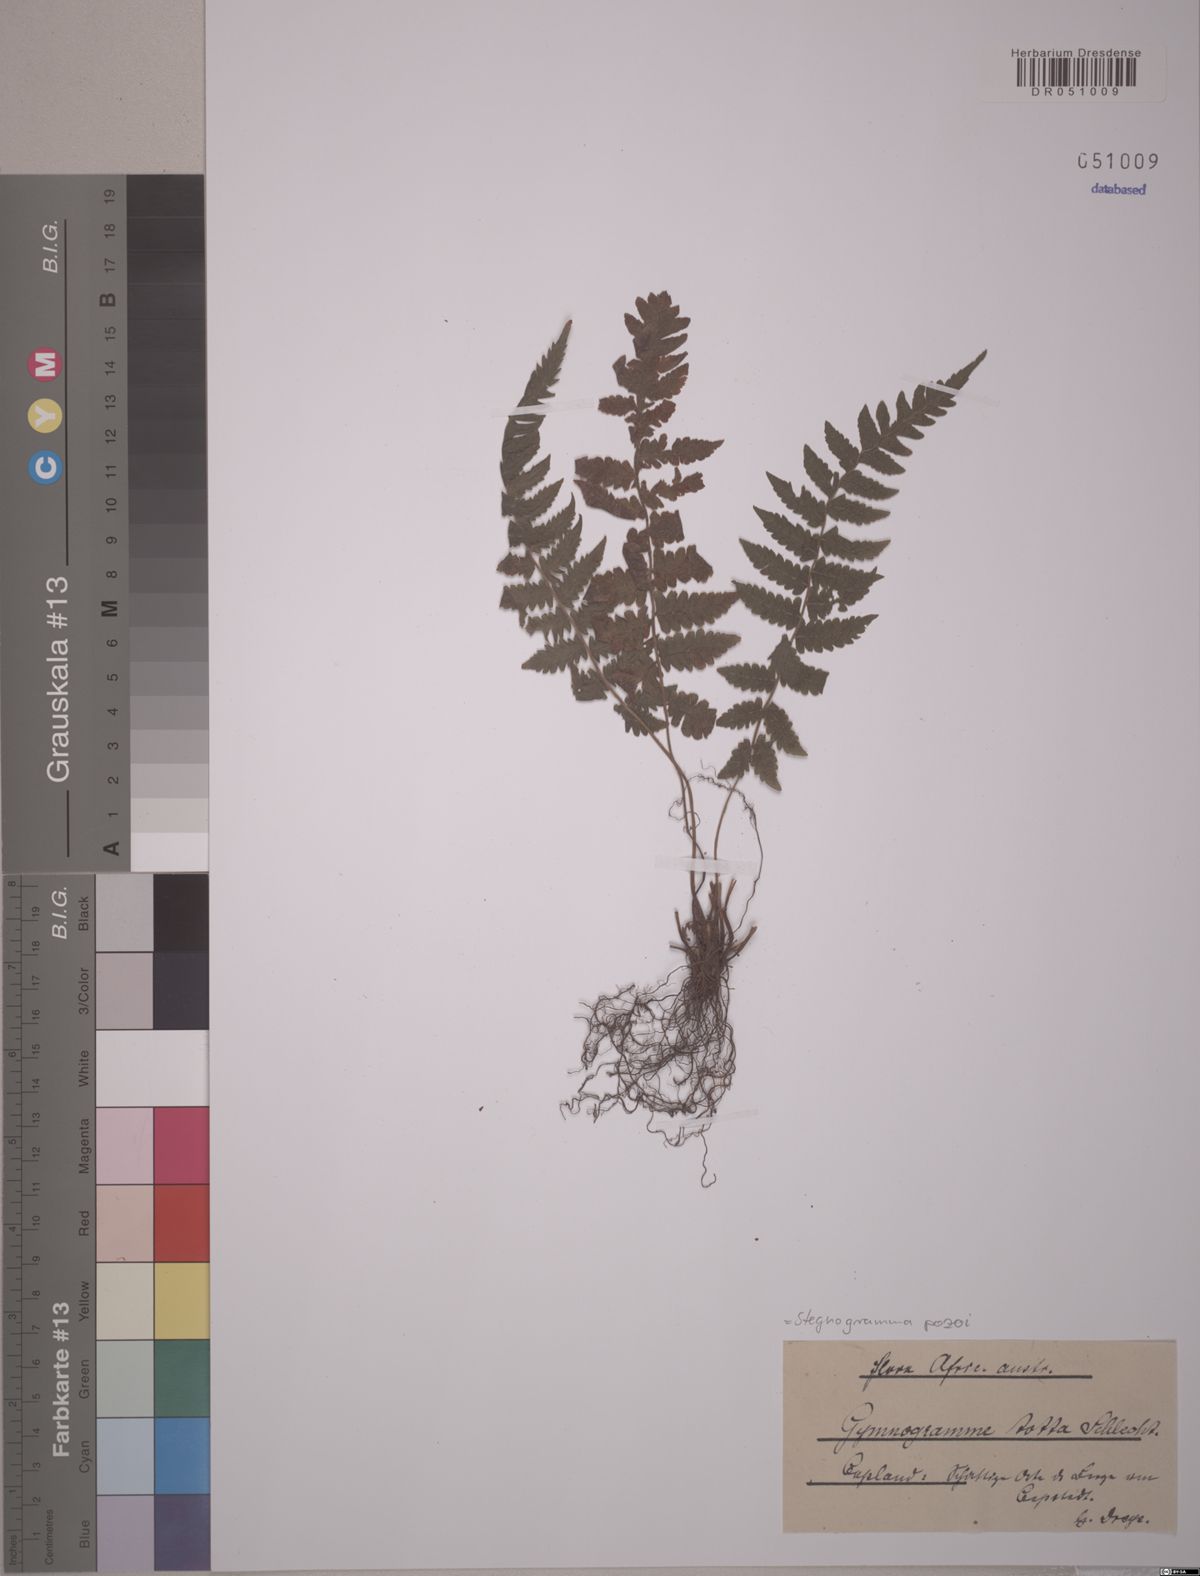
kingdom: Plantae
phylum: Tracheophyta
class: Polypodiopsida
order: Polypodiales
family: Thelypteridaceae
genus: Leptogramma
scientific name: Leptogramma pozoi
